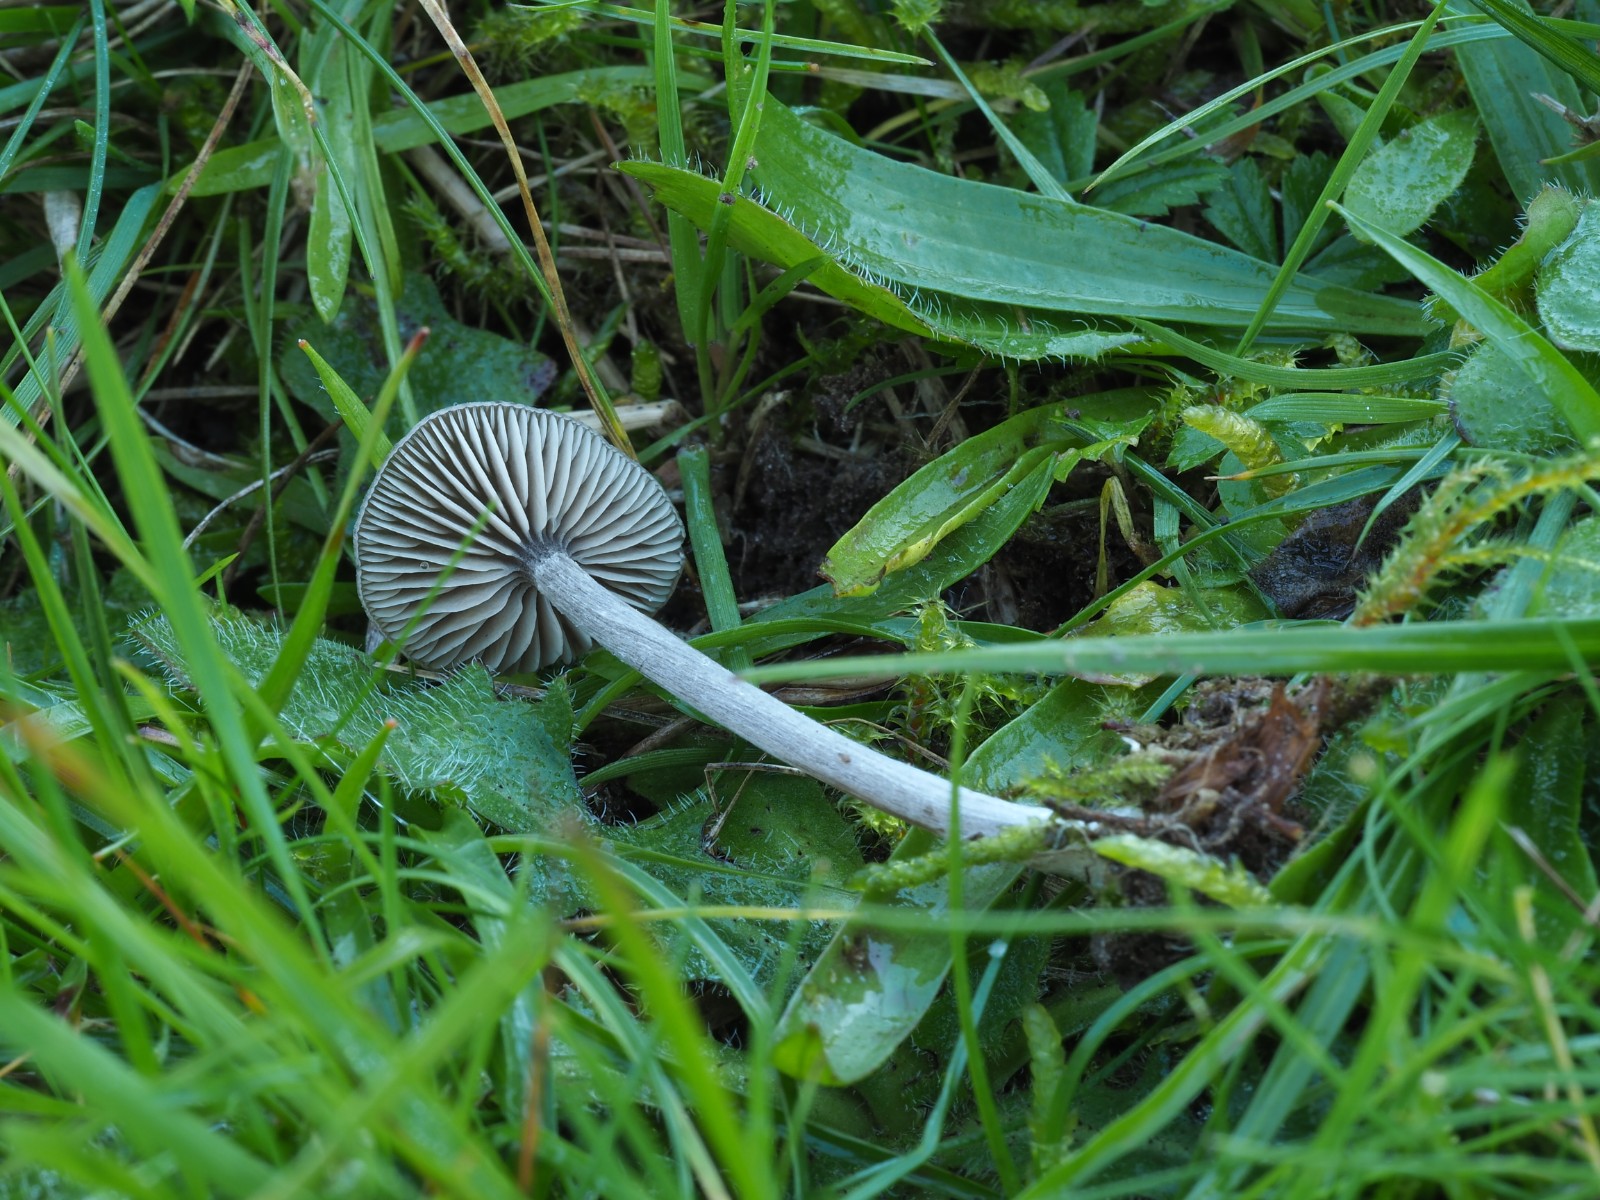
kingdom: Fungi
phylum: Basidiomycota
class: Agaricomycetes
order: Agaricales
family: Entolomataceae
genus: Entoloma
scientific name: Entoloma ortonii
